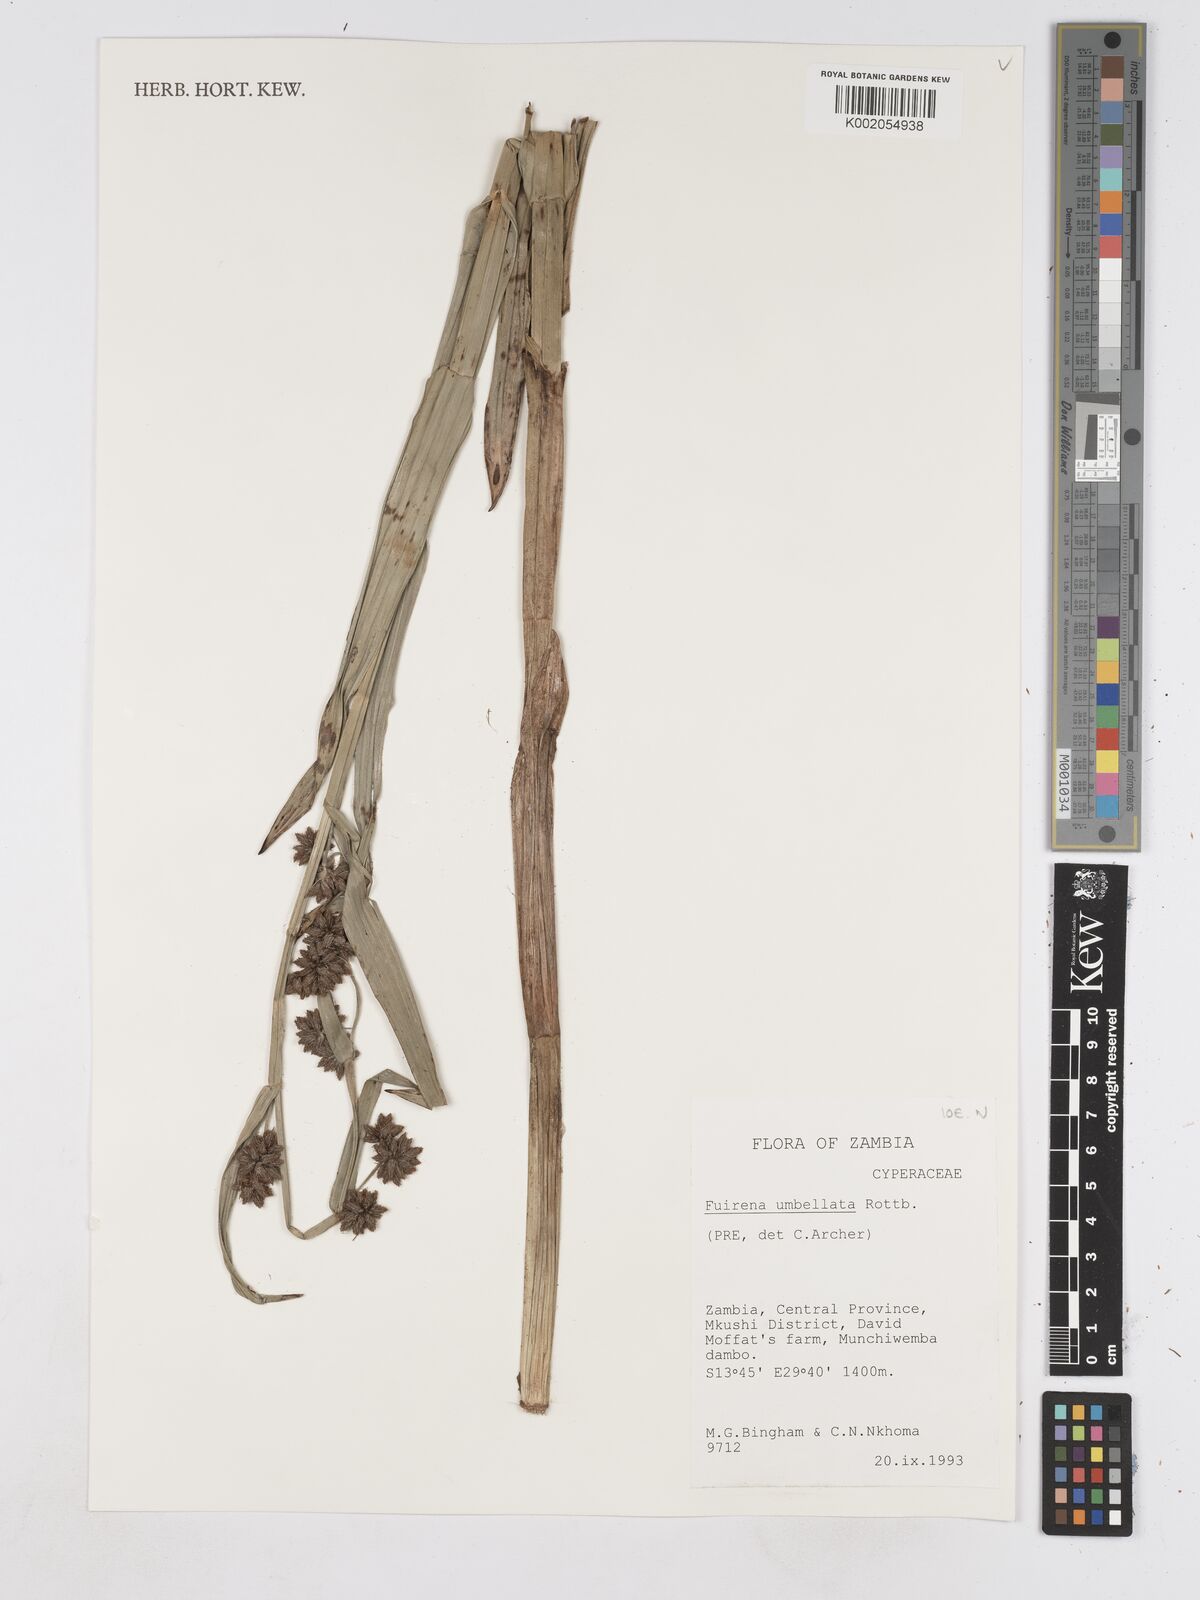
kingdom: Plantae
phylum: Tracheophyta
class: Liliopsida
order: Poales
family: Cyperaceae
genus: Fuirena
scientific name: Fuirena umbellata
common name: Yefen
